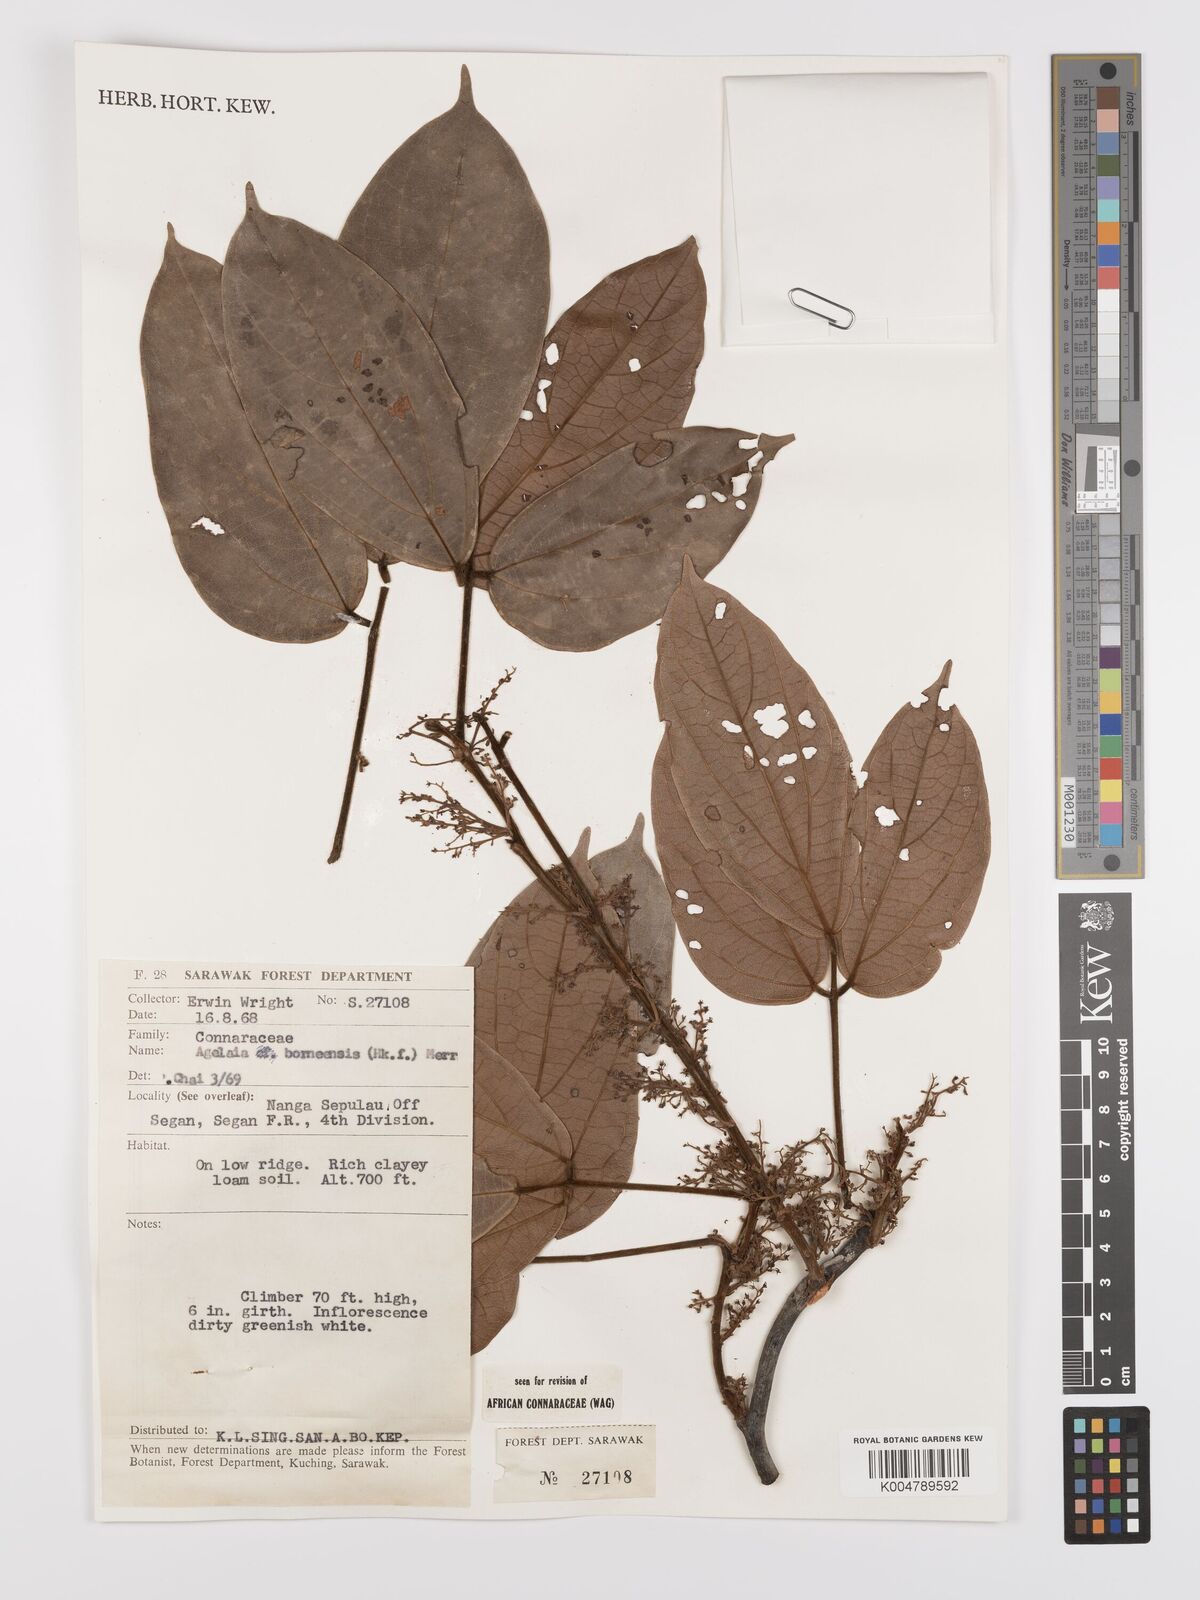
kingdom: Plantae
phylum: Tracheophyta
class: Magnoliopsida
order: Oxalidales
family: Connaraceae
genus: Agelaea
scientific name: Agelaea borneensis
